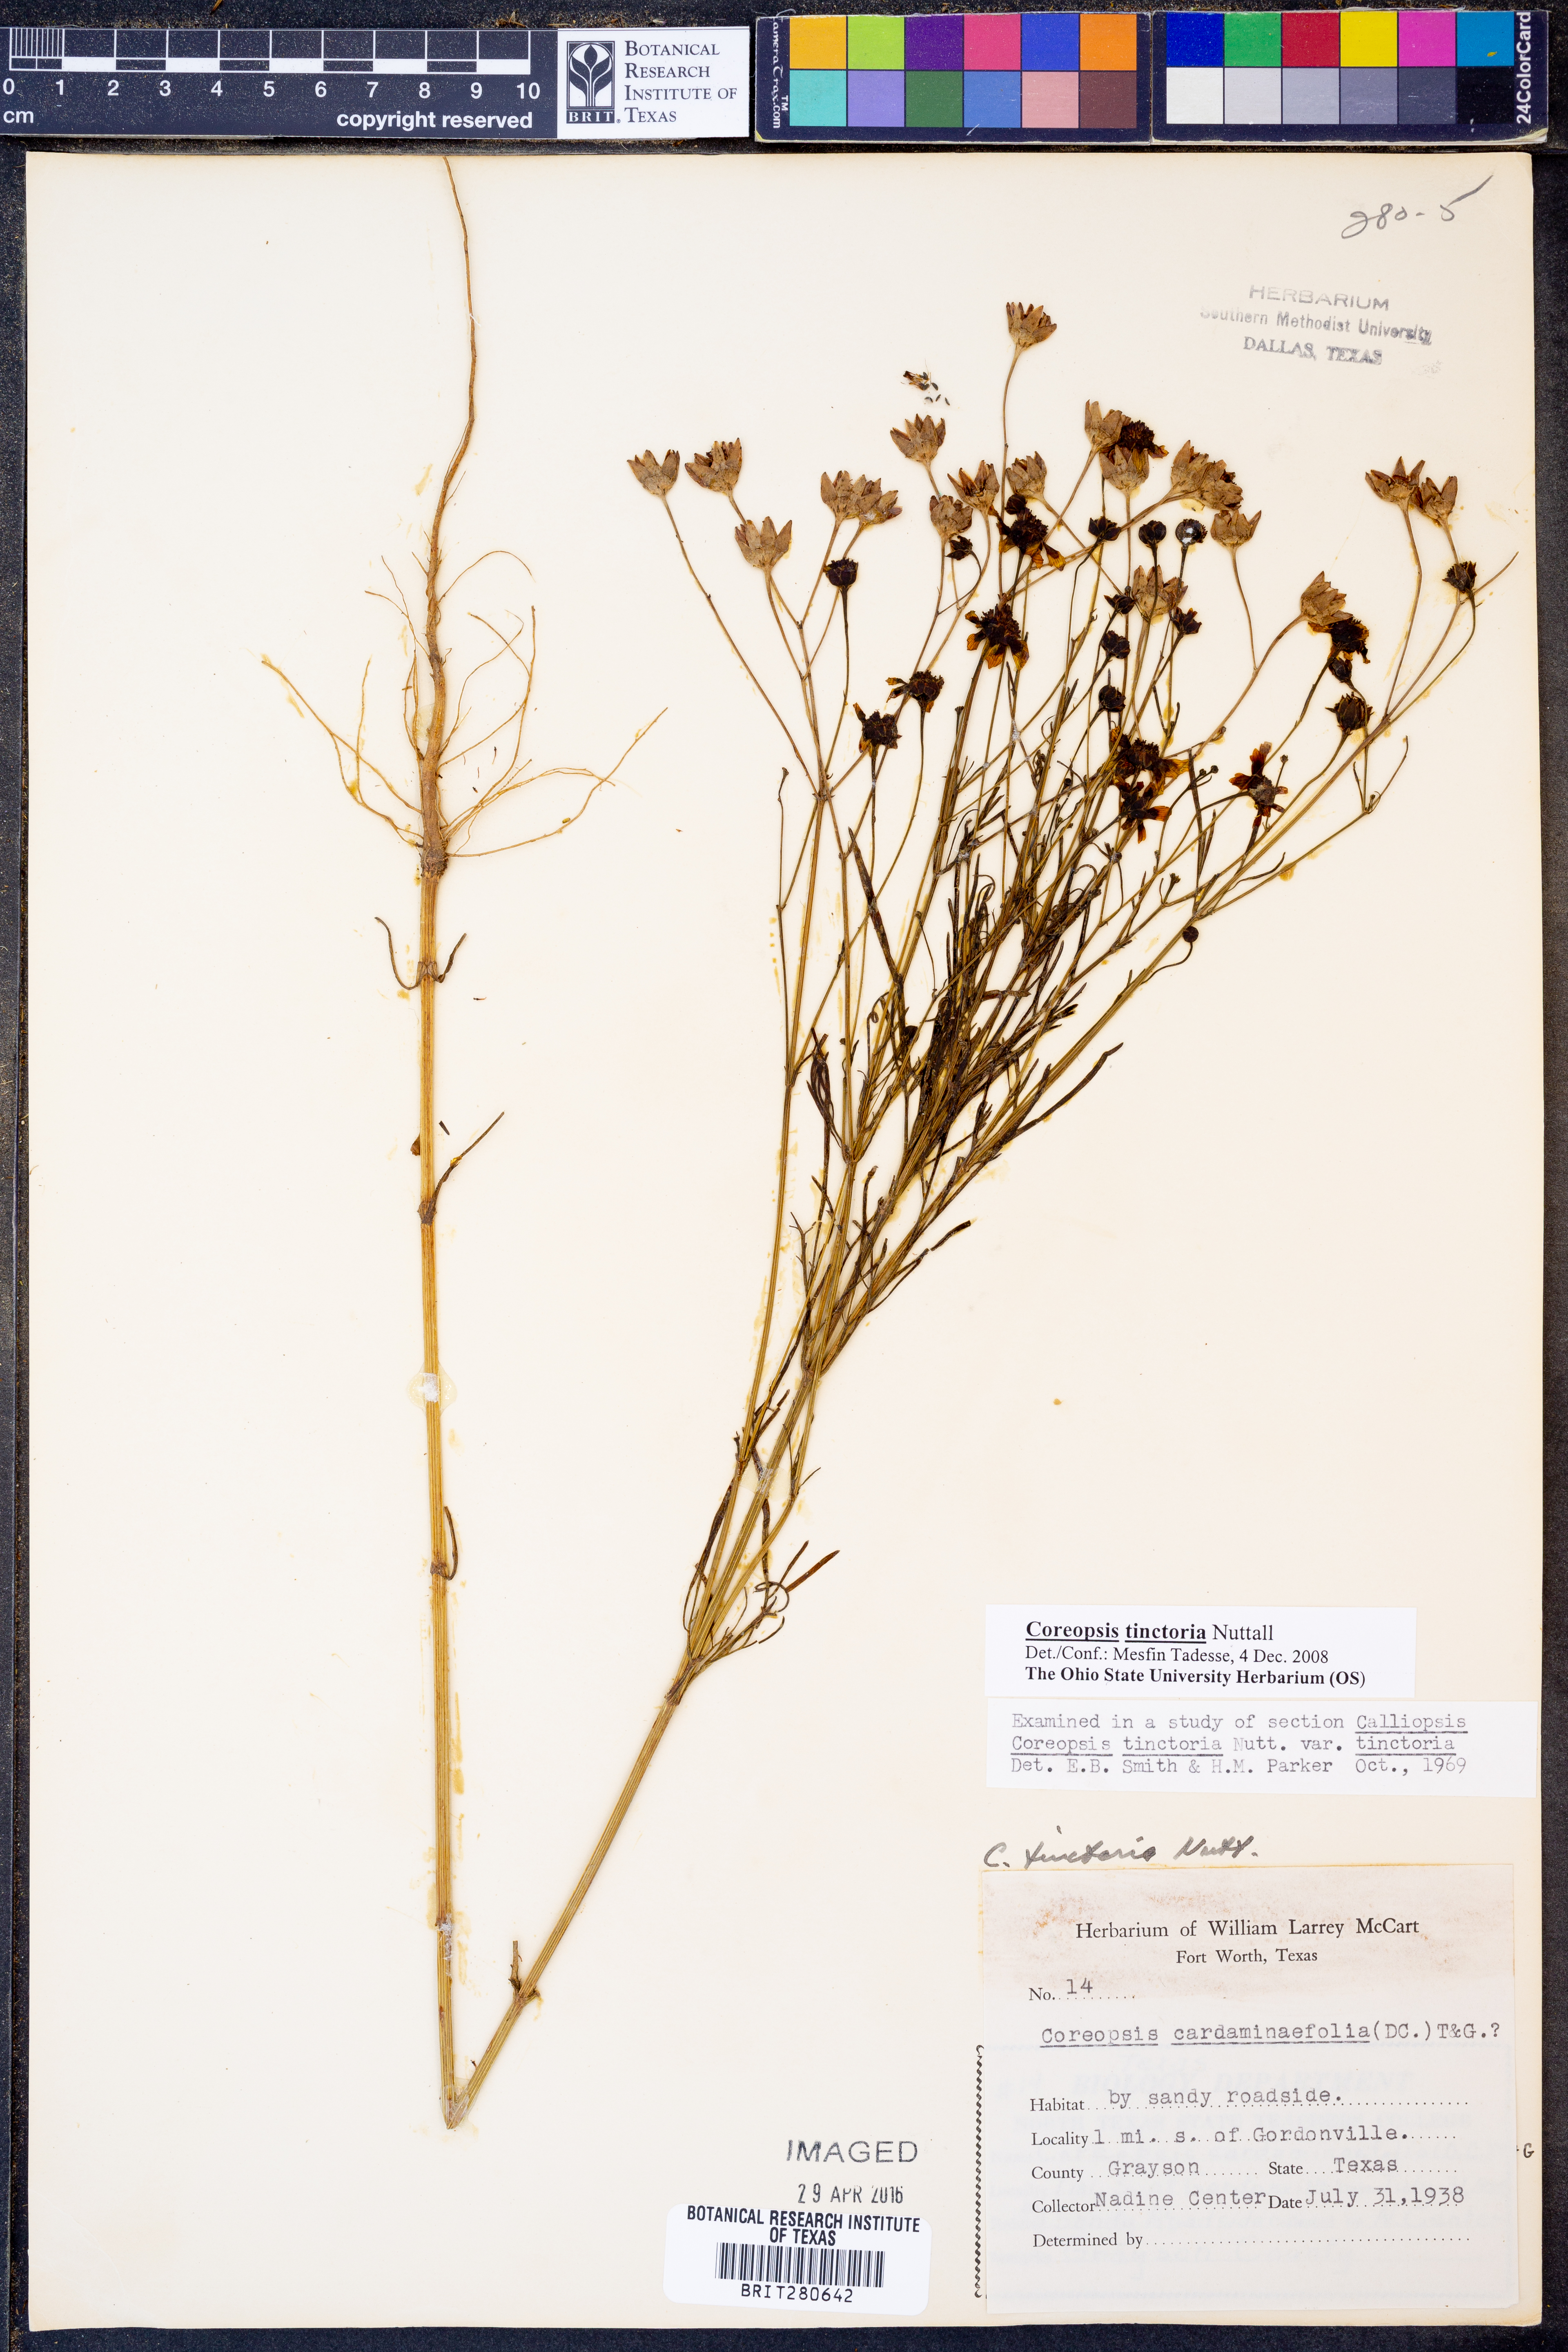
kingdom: Plantae
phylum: Tracheophyta
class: Magnoliopsida
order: Asterales
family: Asteraceae
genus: Coreopsis
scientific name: Coreopsis tinctoria
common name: Garden tickseed
